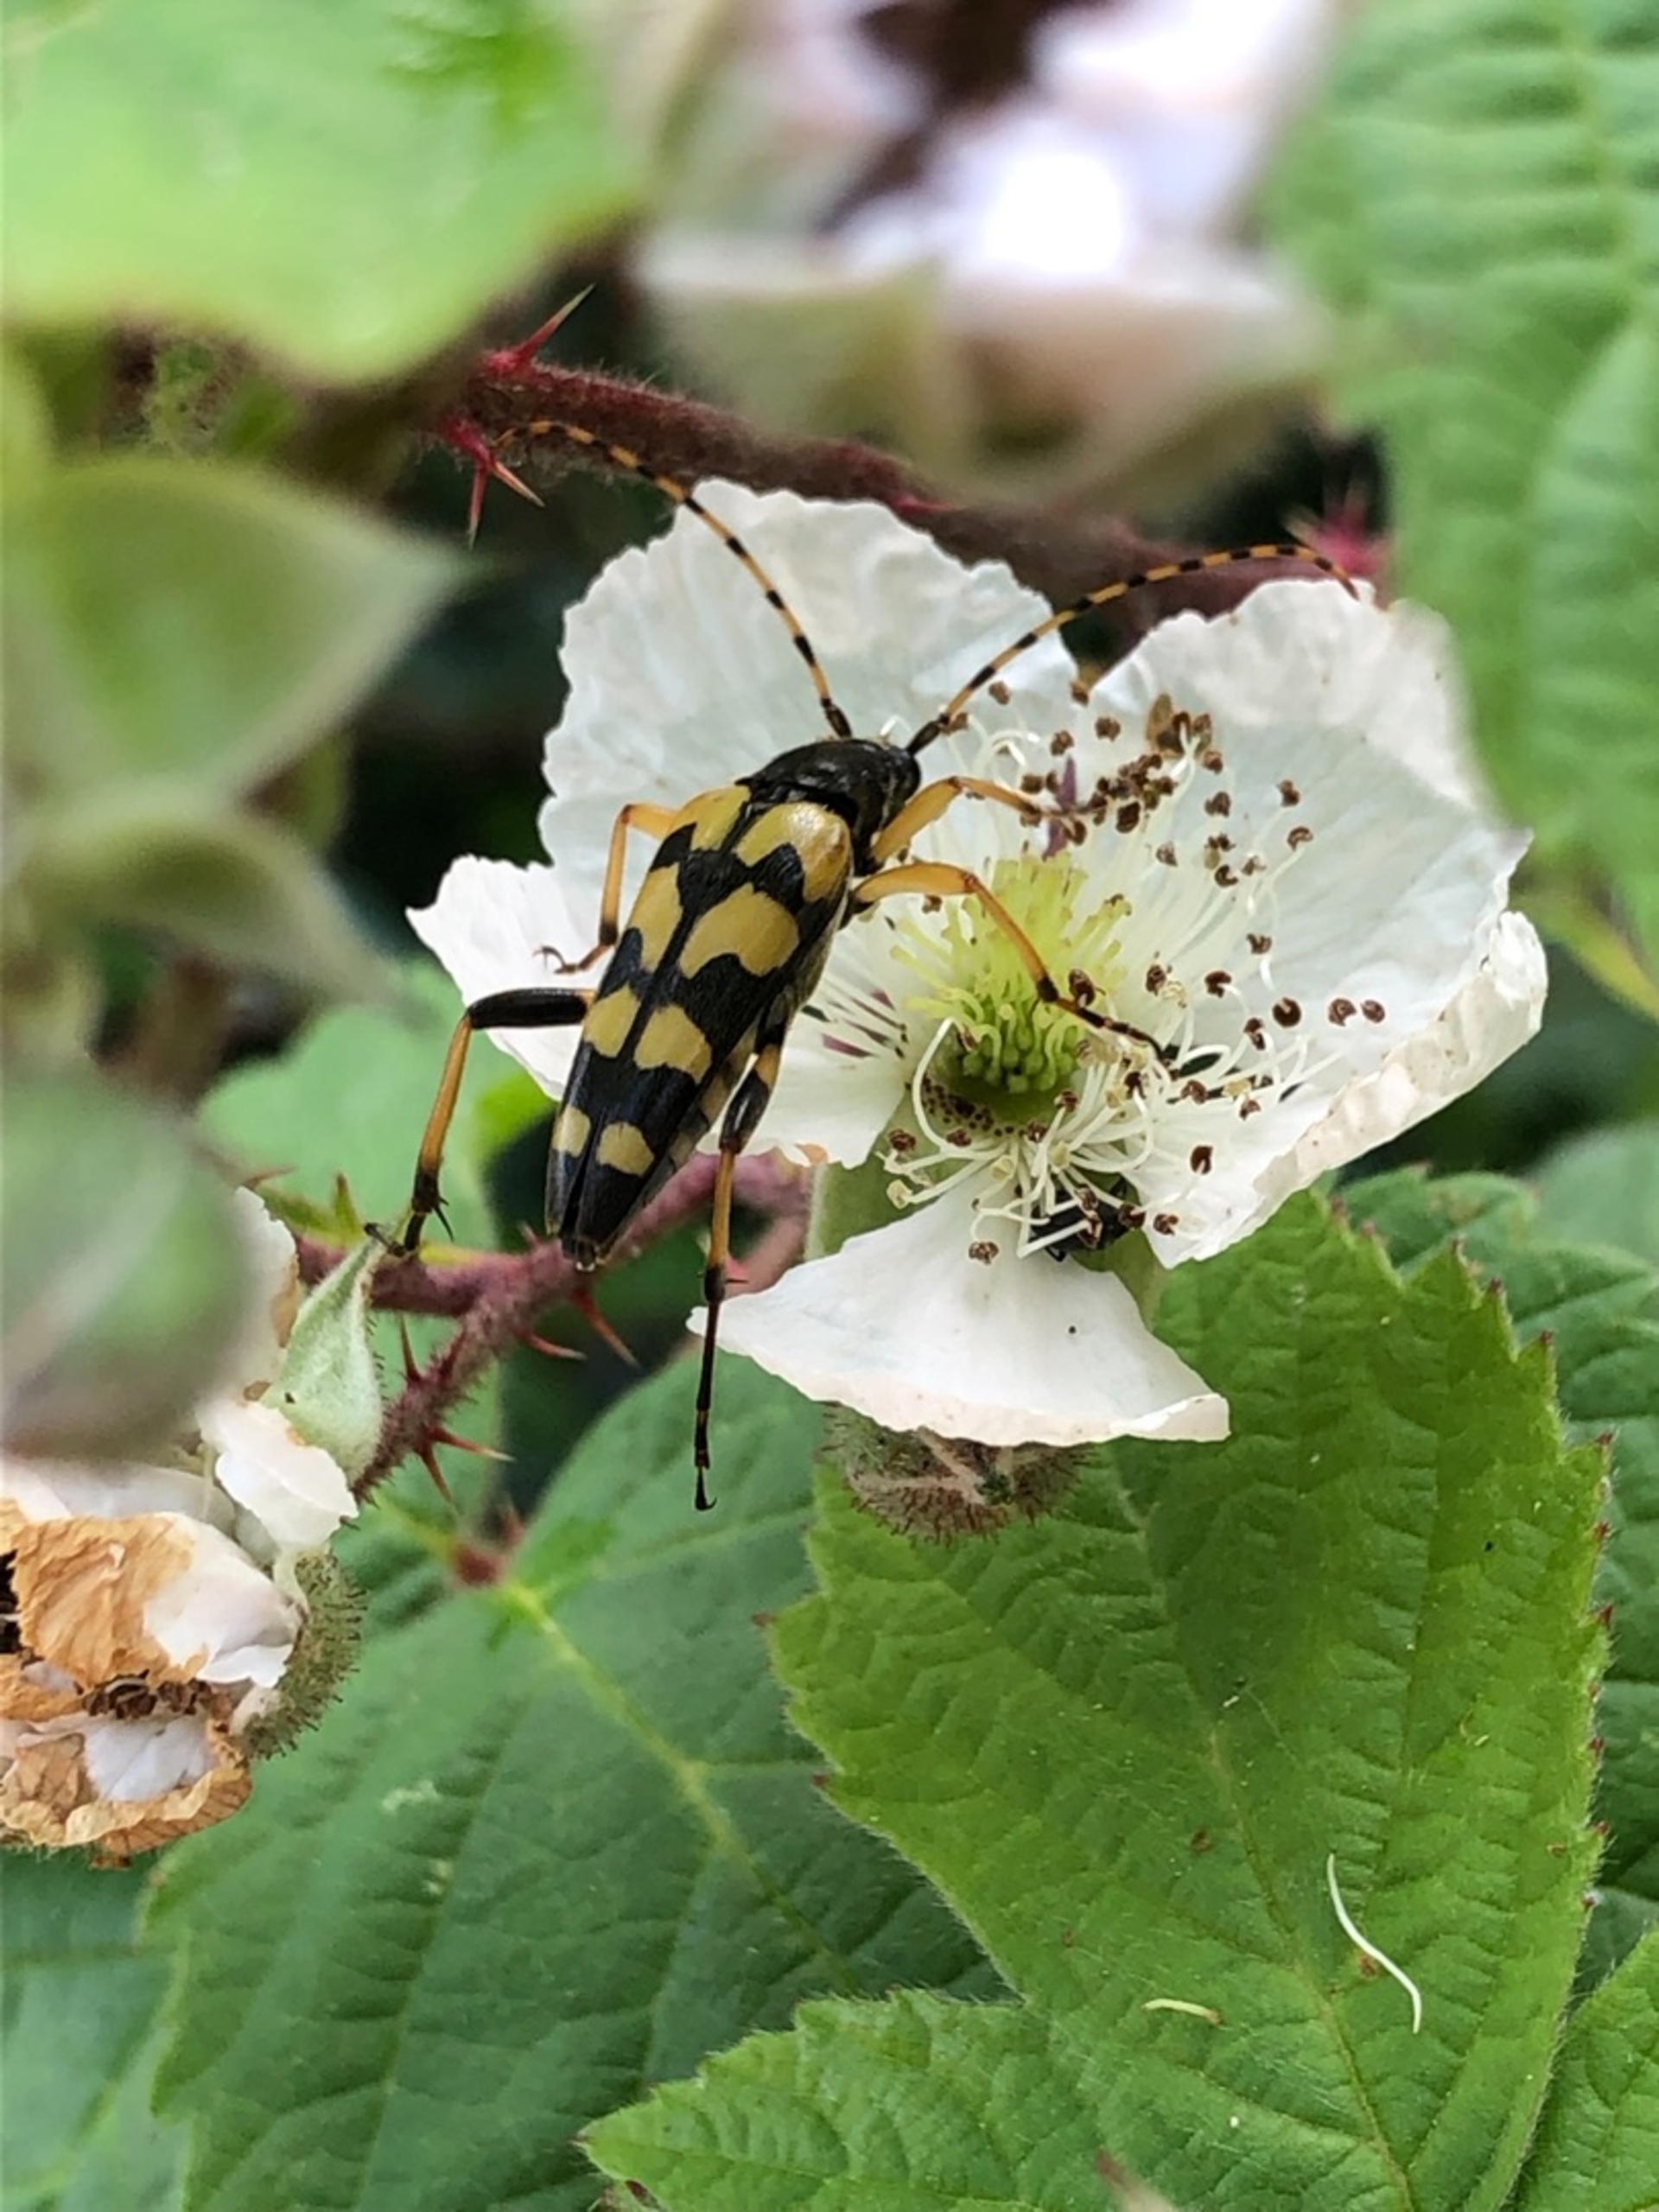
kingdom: Animalia
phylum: Arthropoda
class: Insecta
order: Coleoptera
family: Cerambycidae
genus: Rutpela
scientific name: Rutpela maculata
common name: Sydlig blomsterbuk
